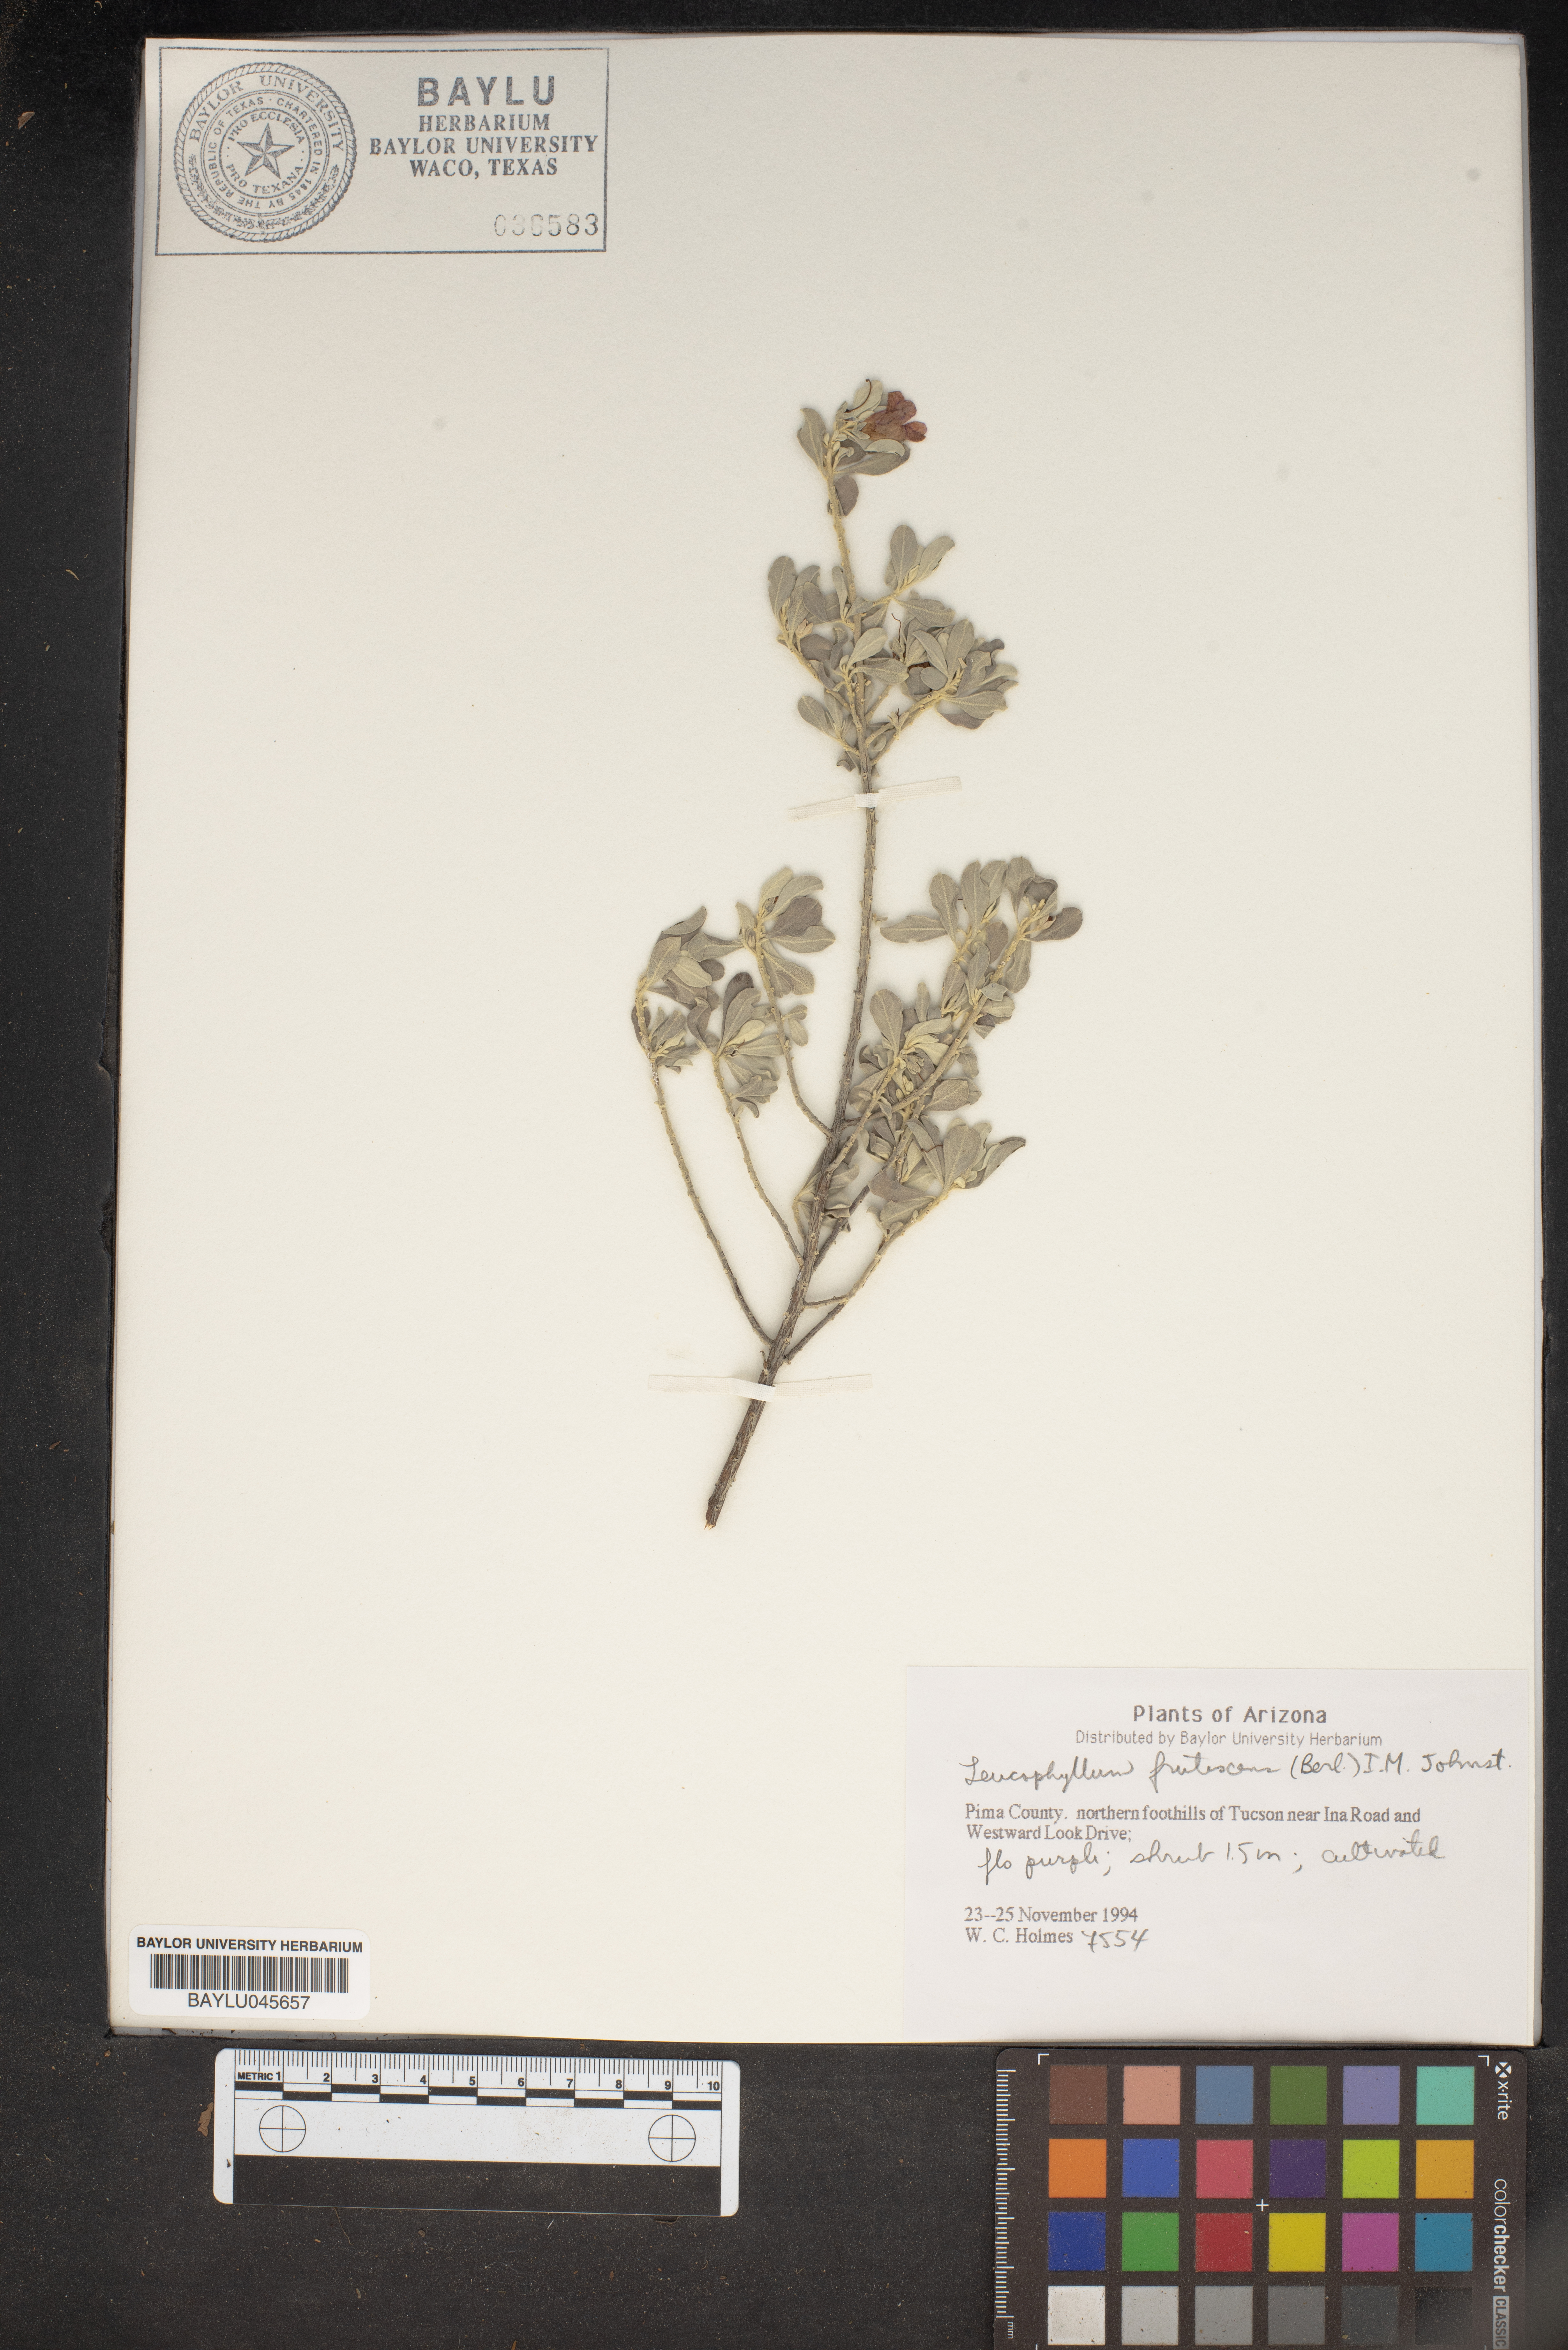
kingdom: Plantae
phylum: Tracheophyta
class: Magnoliopsida
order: Lamiales
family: Scrophulariaceae
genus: Leucophyllum
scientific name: Leucophyllum frutescens
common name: Texas silverleaf
